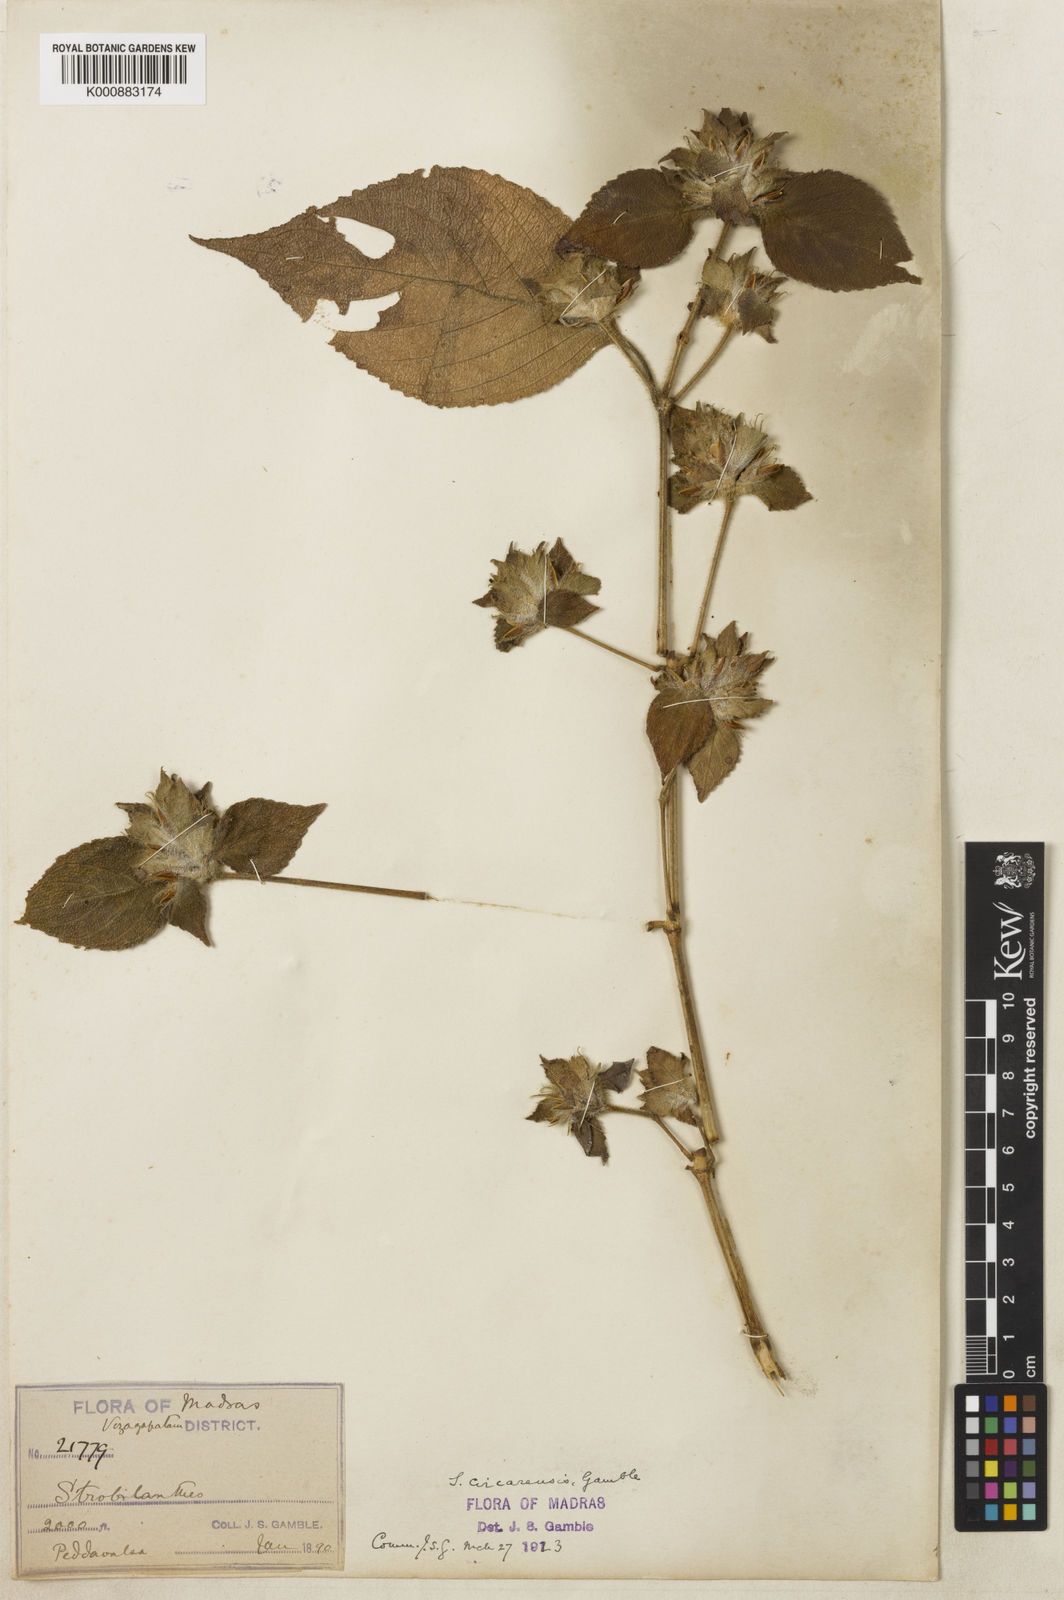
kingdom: Plantae
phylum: Tracheophyta
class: Magnoliopsida
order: Lamiales
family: Acanthaceae
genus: Strobilanthes
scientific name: Strobilanthes pulneyensis
